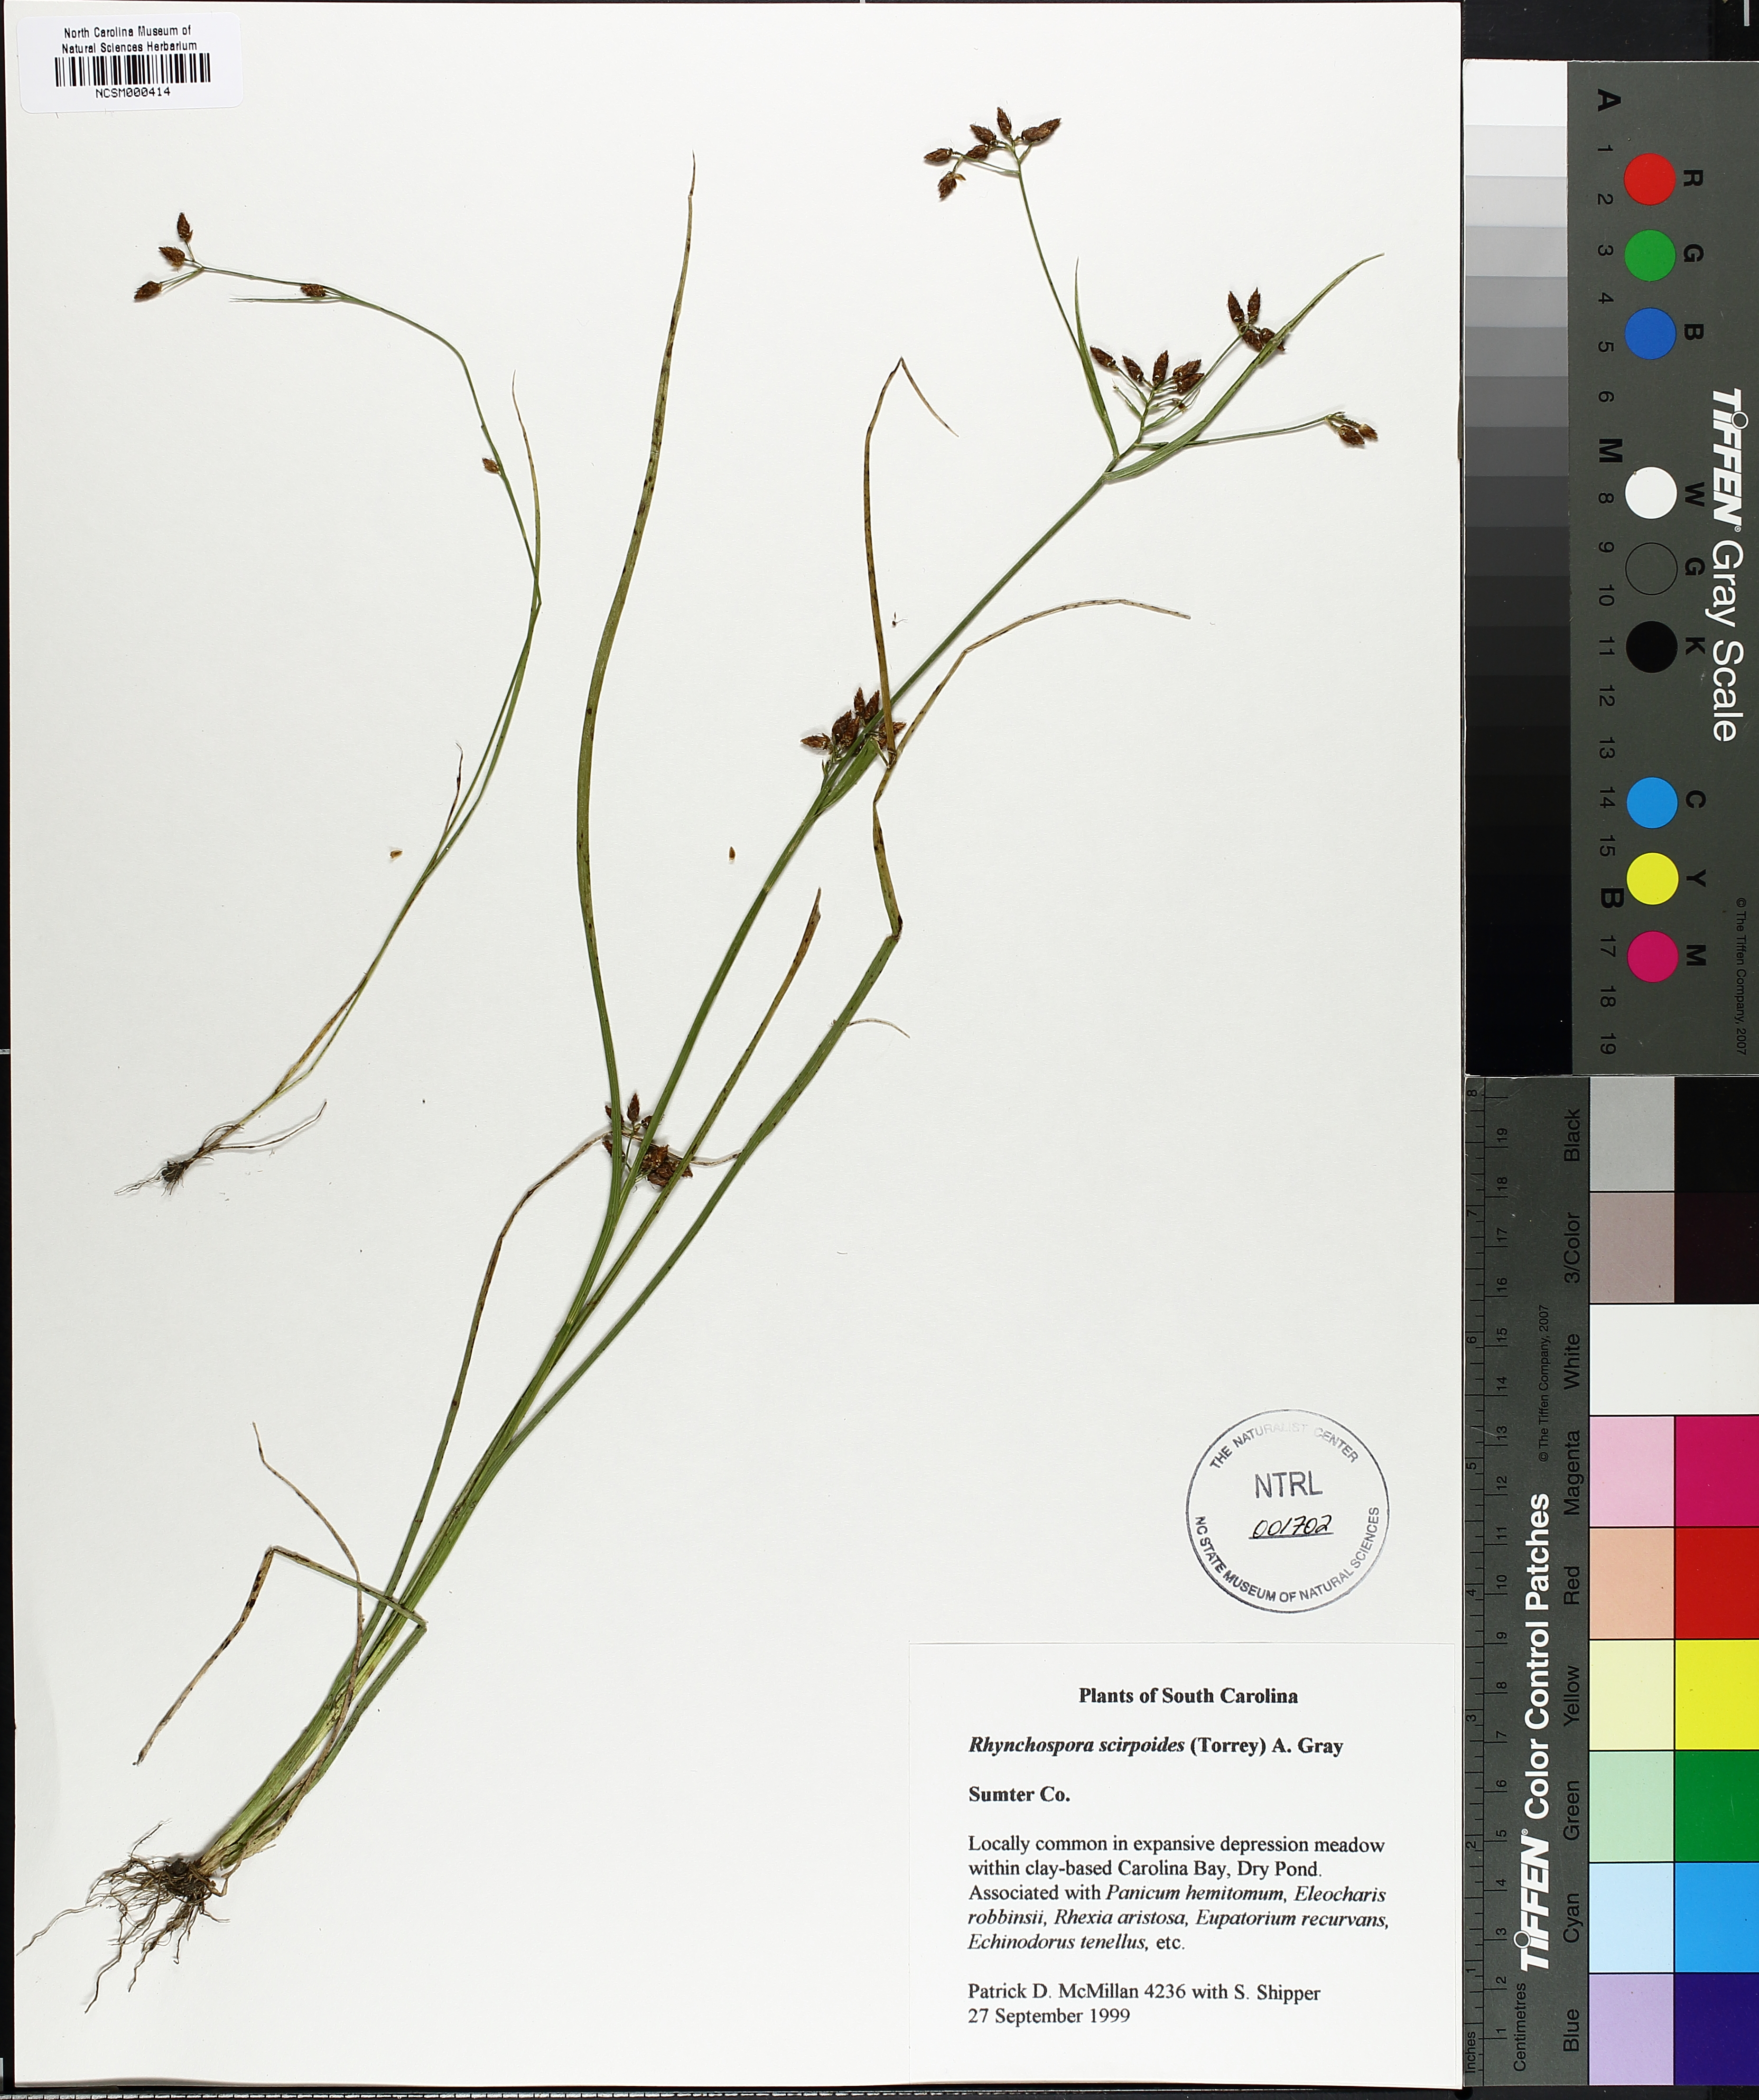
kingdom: Plantae
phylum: Tracheophyta
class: Liliopsida
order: Poales
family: Cyperaceae
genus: Rhynchospora
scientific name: Rhynchospora scirpoides
